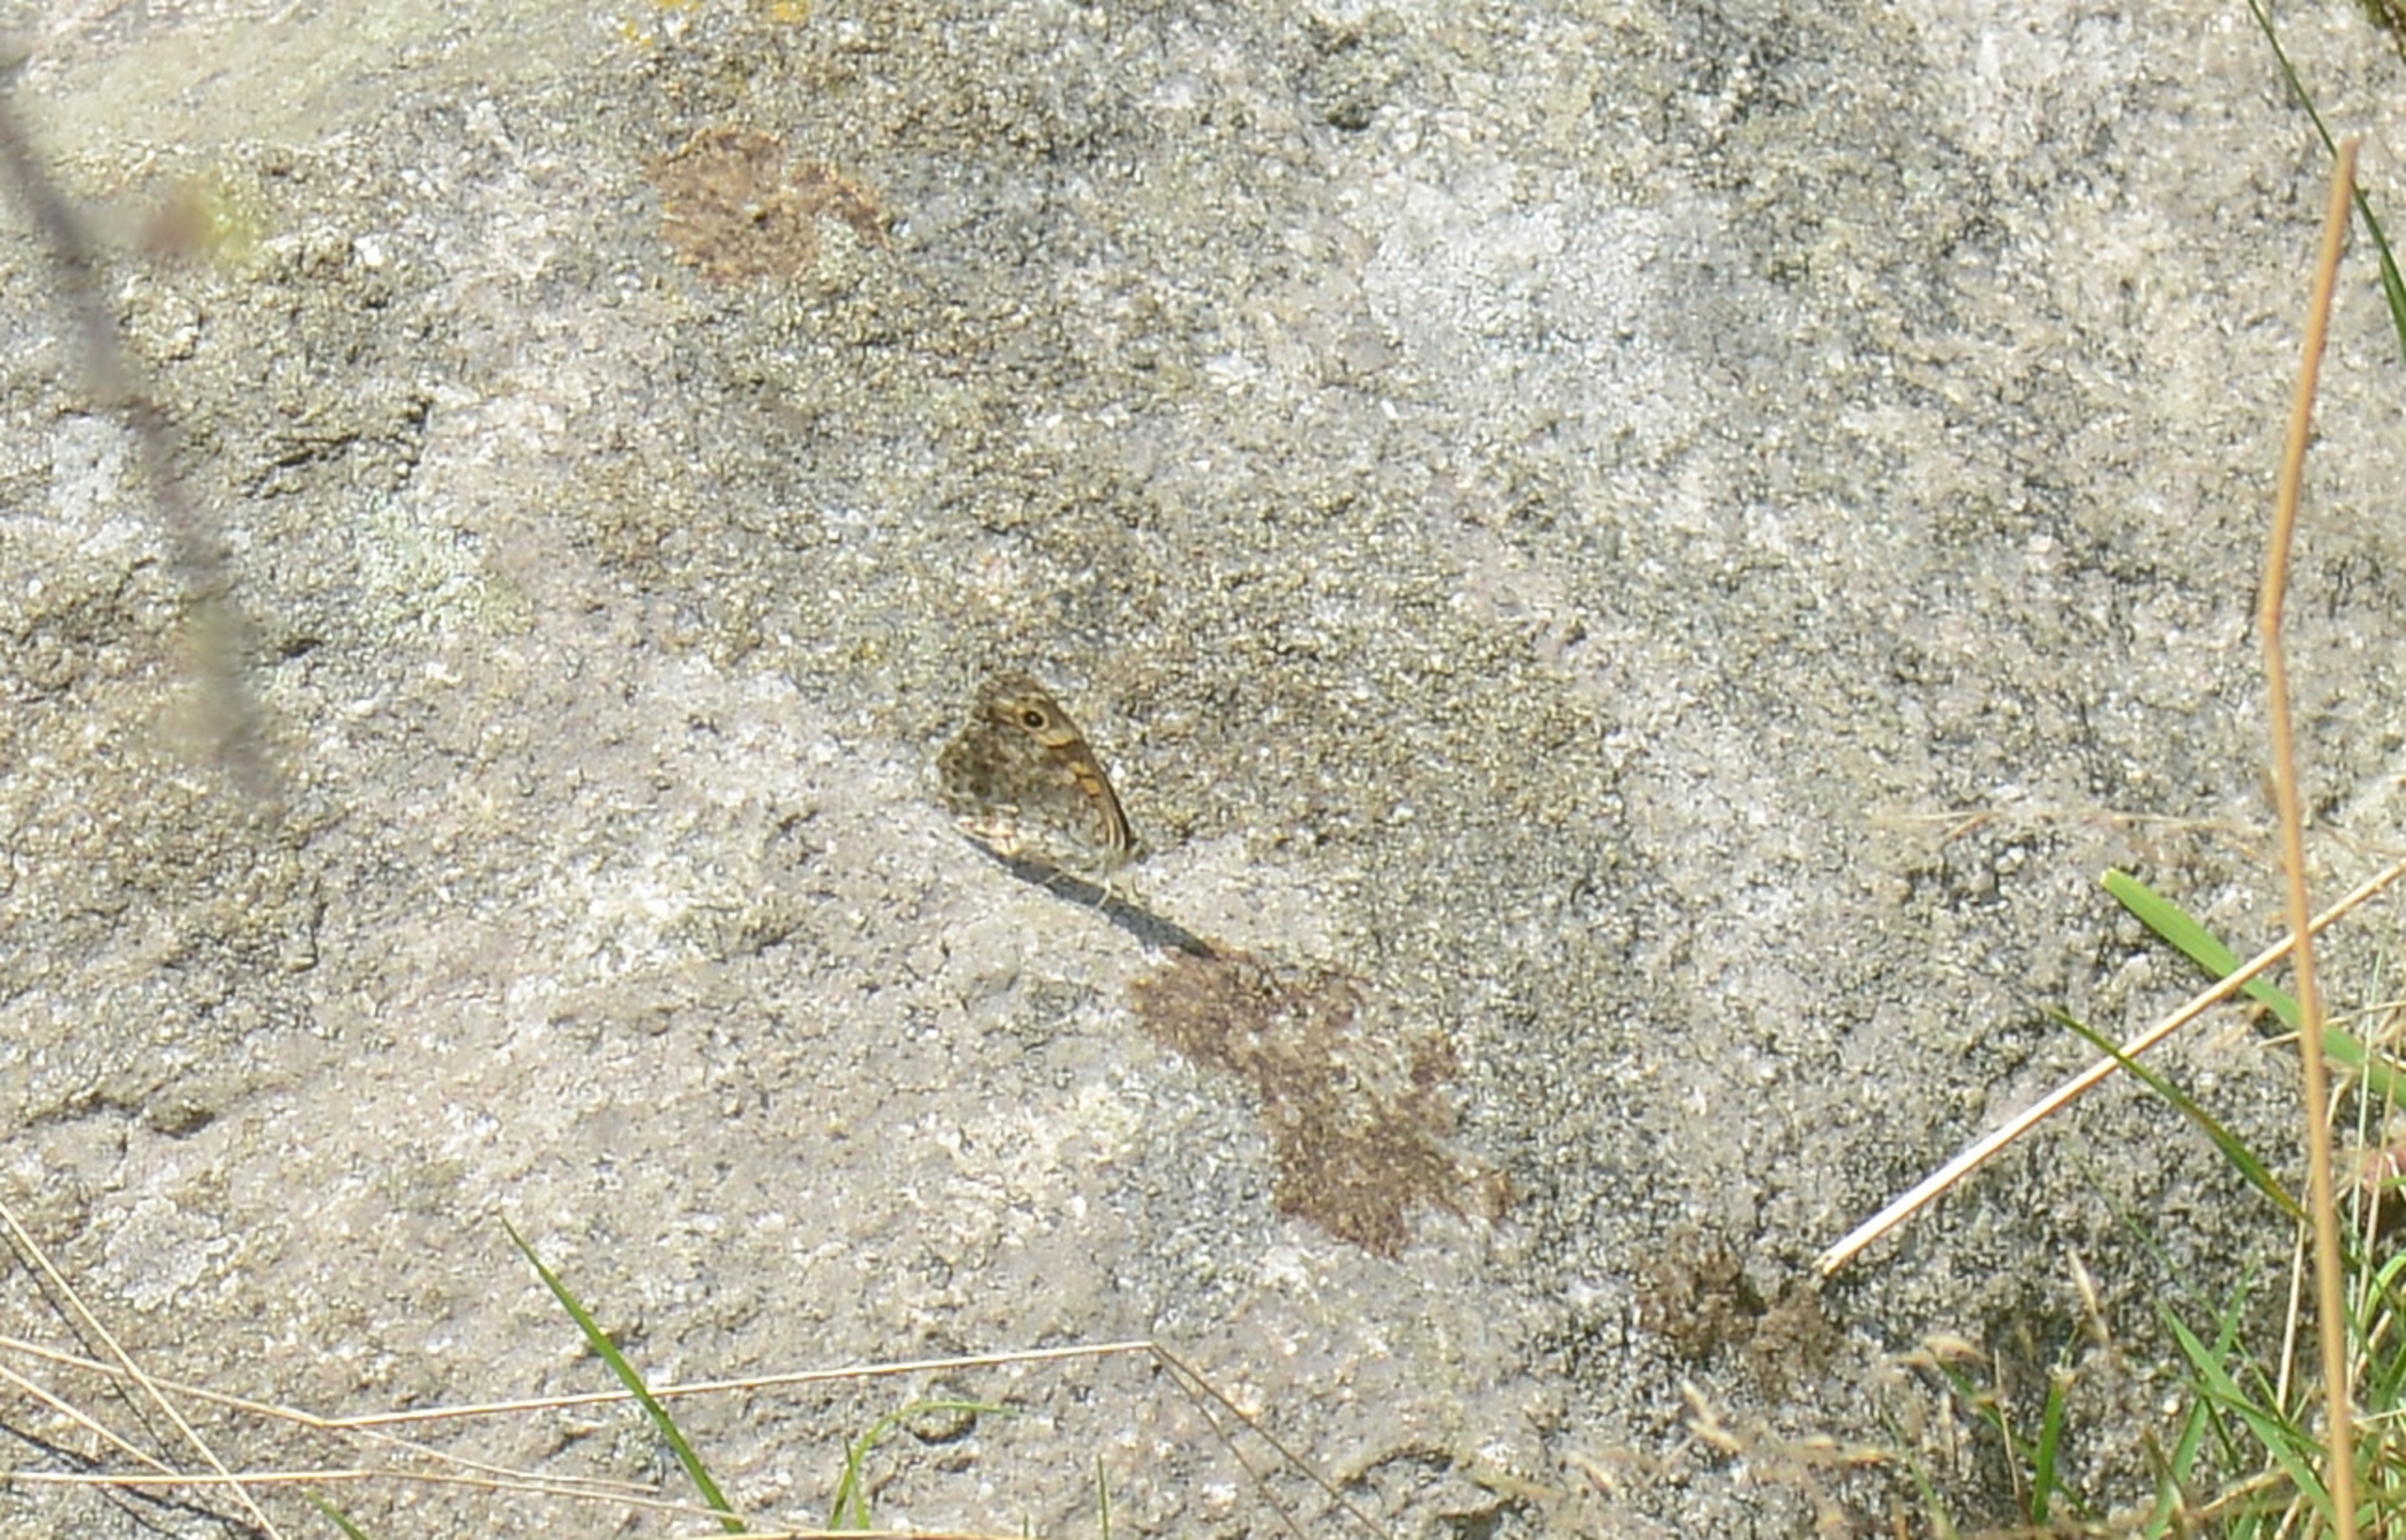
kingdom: Animalia
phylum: Arthropoda
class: Insecta
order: Lepidoptera
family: Nymphalidae
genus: Pararge
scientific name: Pararge Lasiommata megera
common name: Vejrandøje
